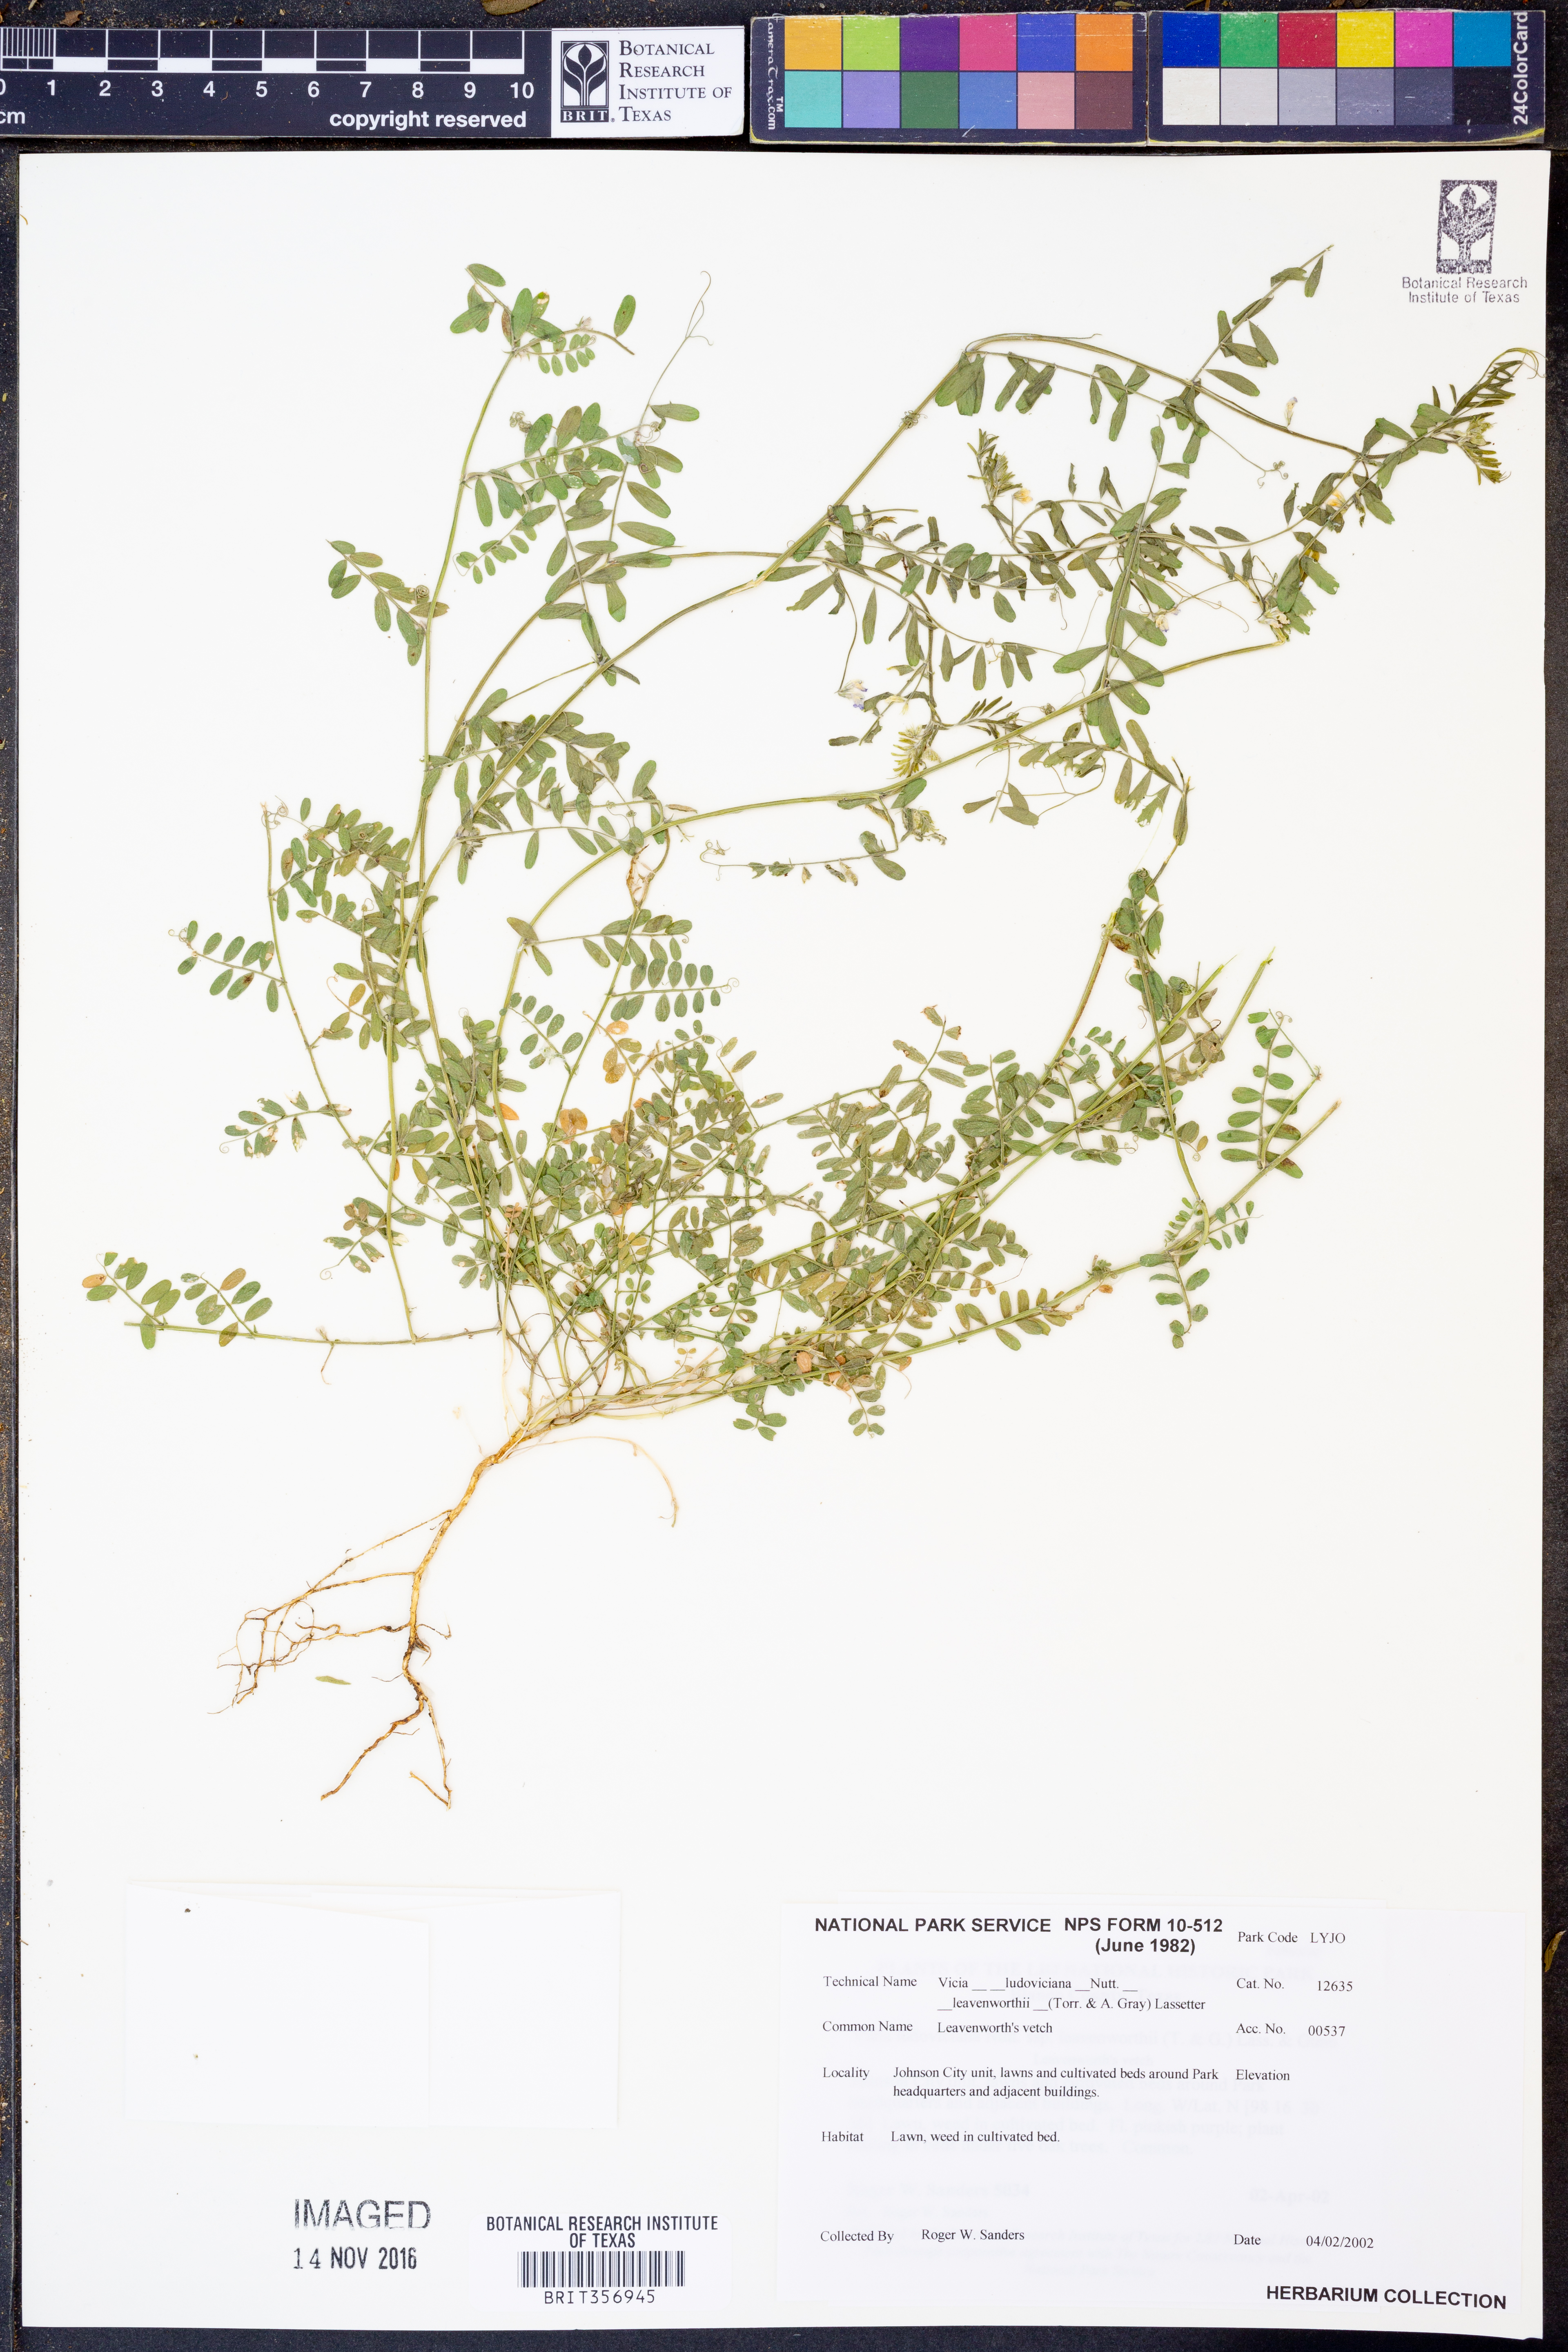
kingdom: Plantae
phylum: Tracheophyta
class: Magnoliopsida
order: Fabales
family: Fabaceae
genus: Vicia
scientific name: Vicia ludoviciana
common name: Louisiana vetch
